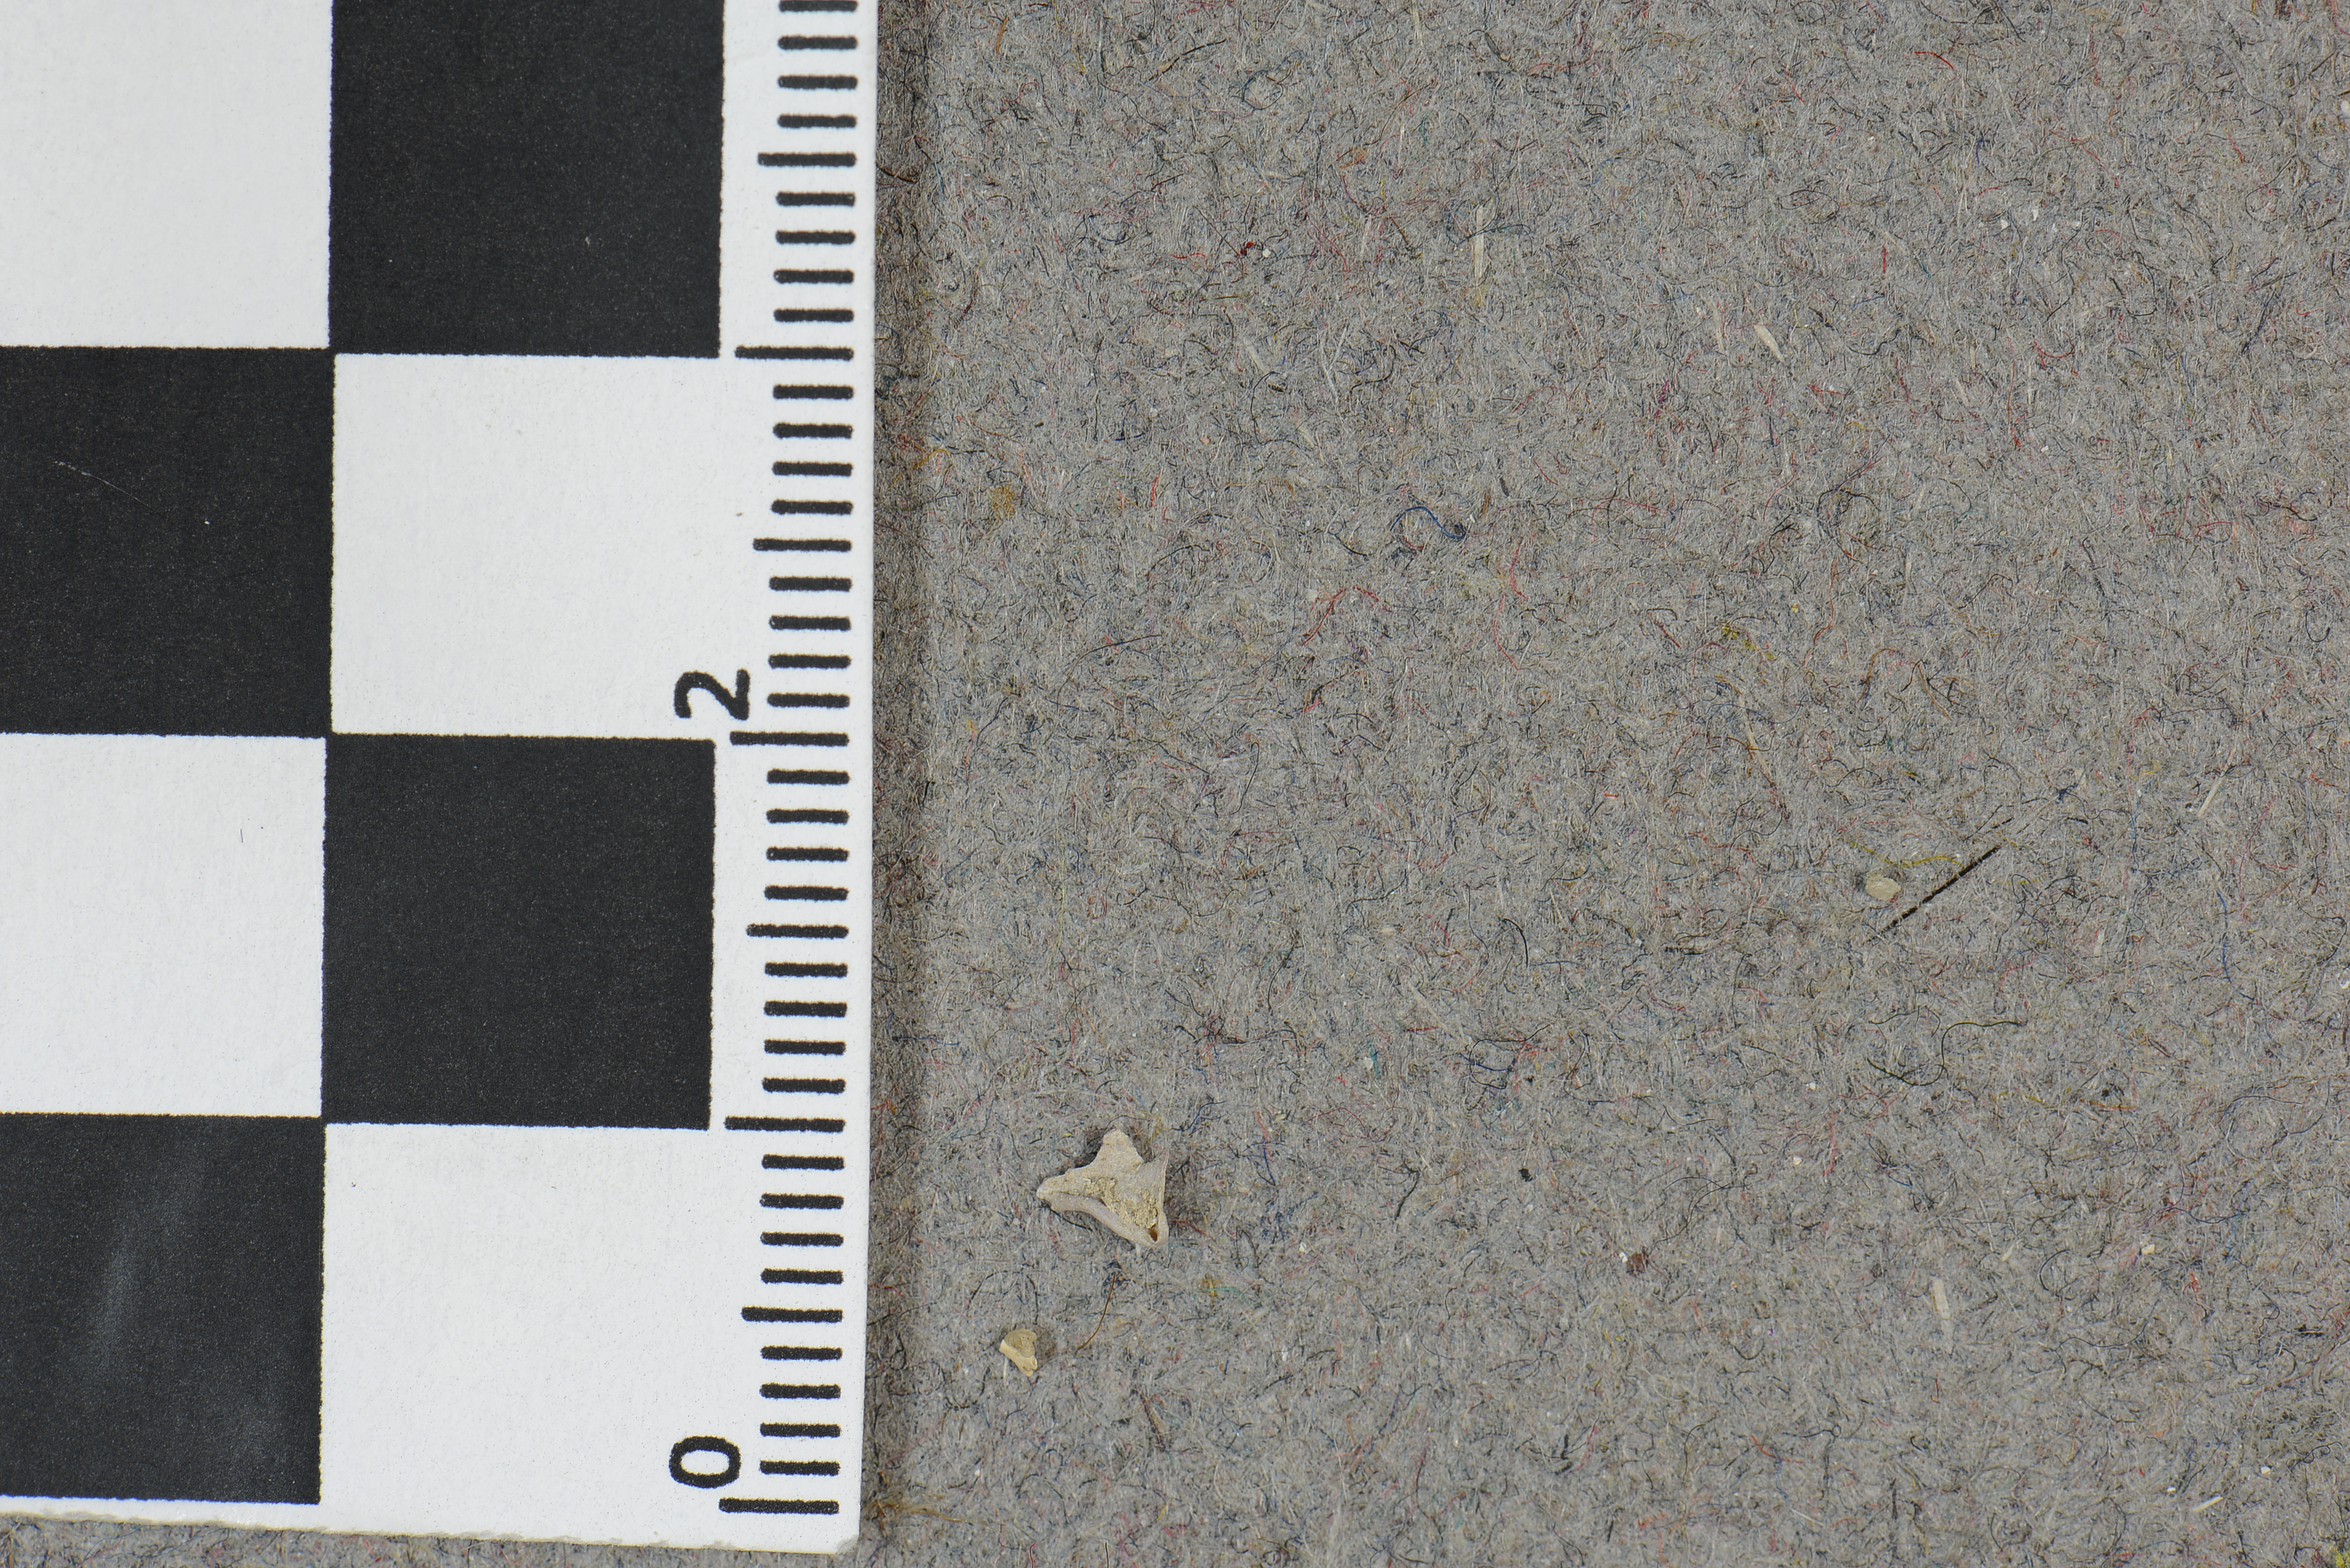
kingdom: Plantae
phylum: Rhodophyta
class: Florideophyceae
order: Corallinales
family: Mastophoraceae
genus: Mastophora
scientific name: Mastophora rosea
